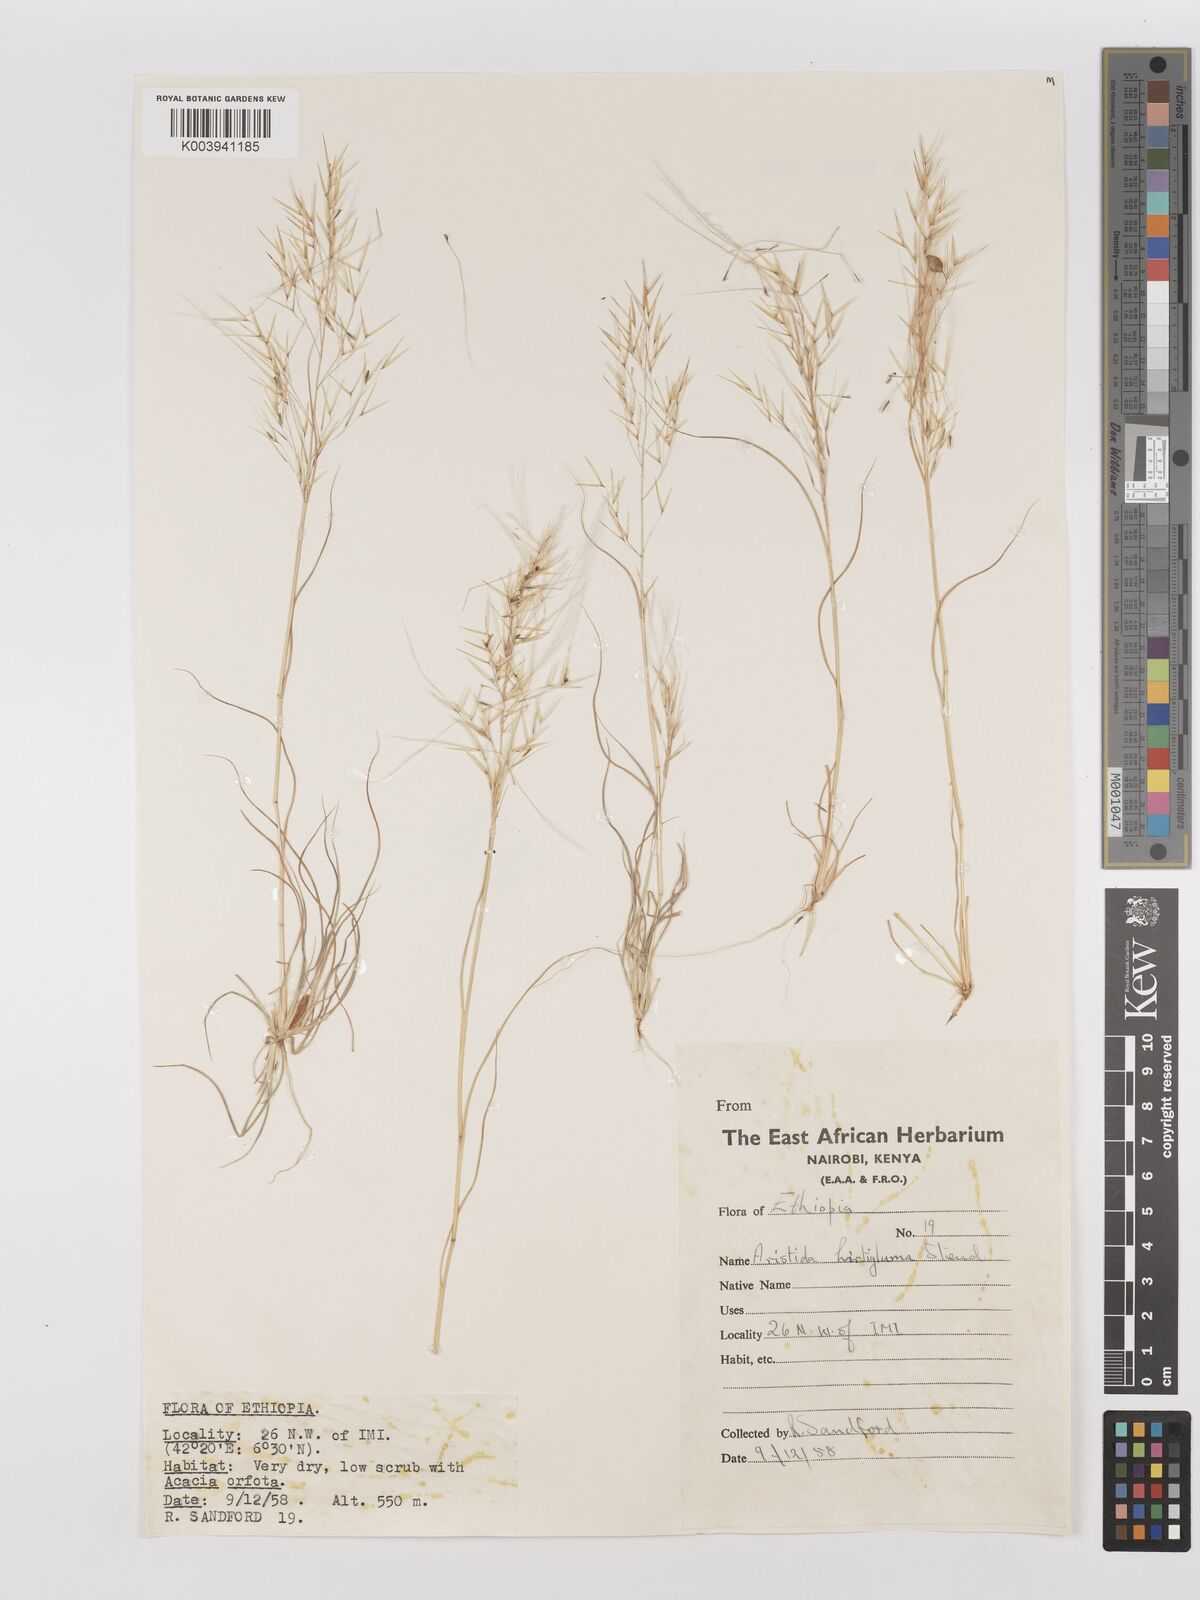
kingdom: Plantae
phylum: Tracheophyta
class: Liliopsida
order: Poales
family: Poaceae
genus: Stipagrostis
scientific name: Stipagrostis hirtigluma
